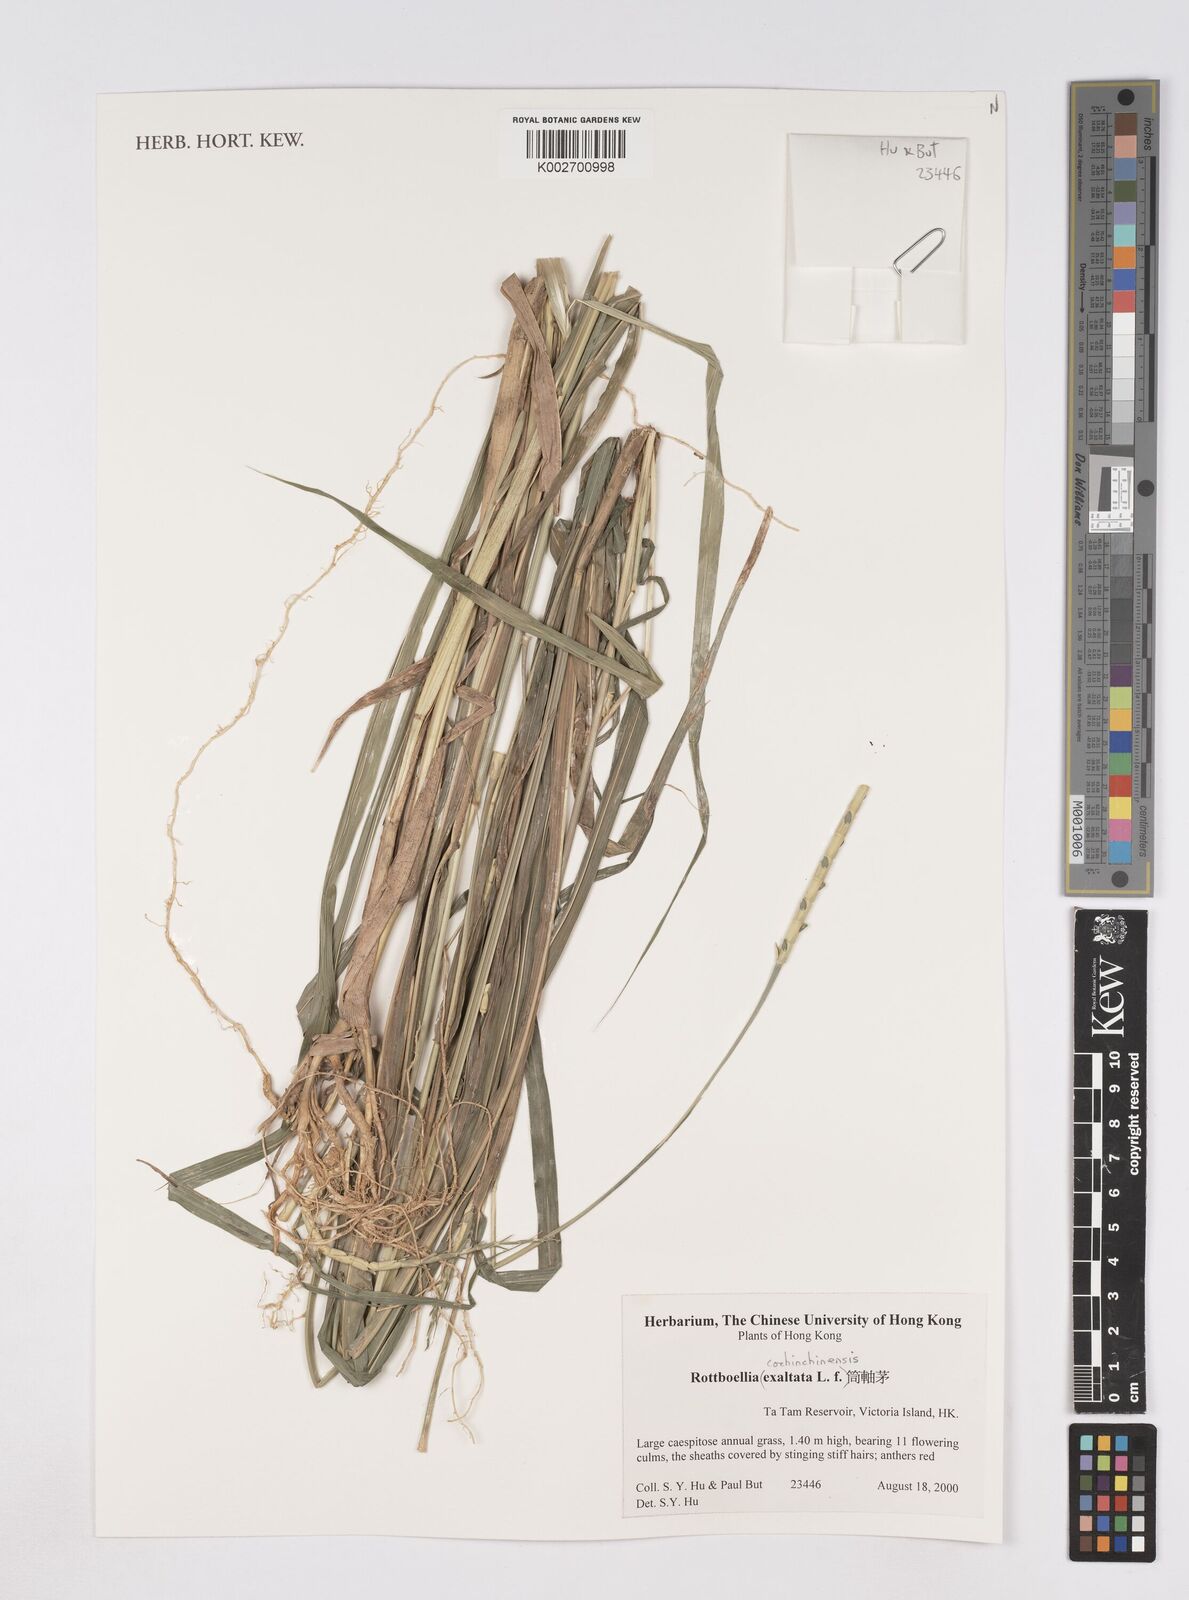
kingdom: Plantae
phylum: Tracheophyta
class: Liliopsida
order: Poales
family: Poaceae
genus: Rottboellia
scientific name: Rottboellia cochinchinensis
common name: Itchgrass
